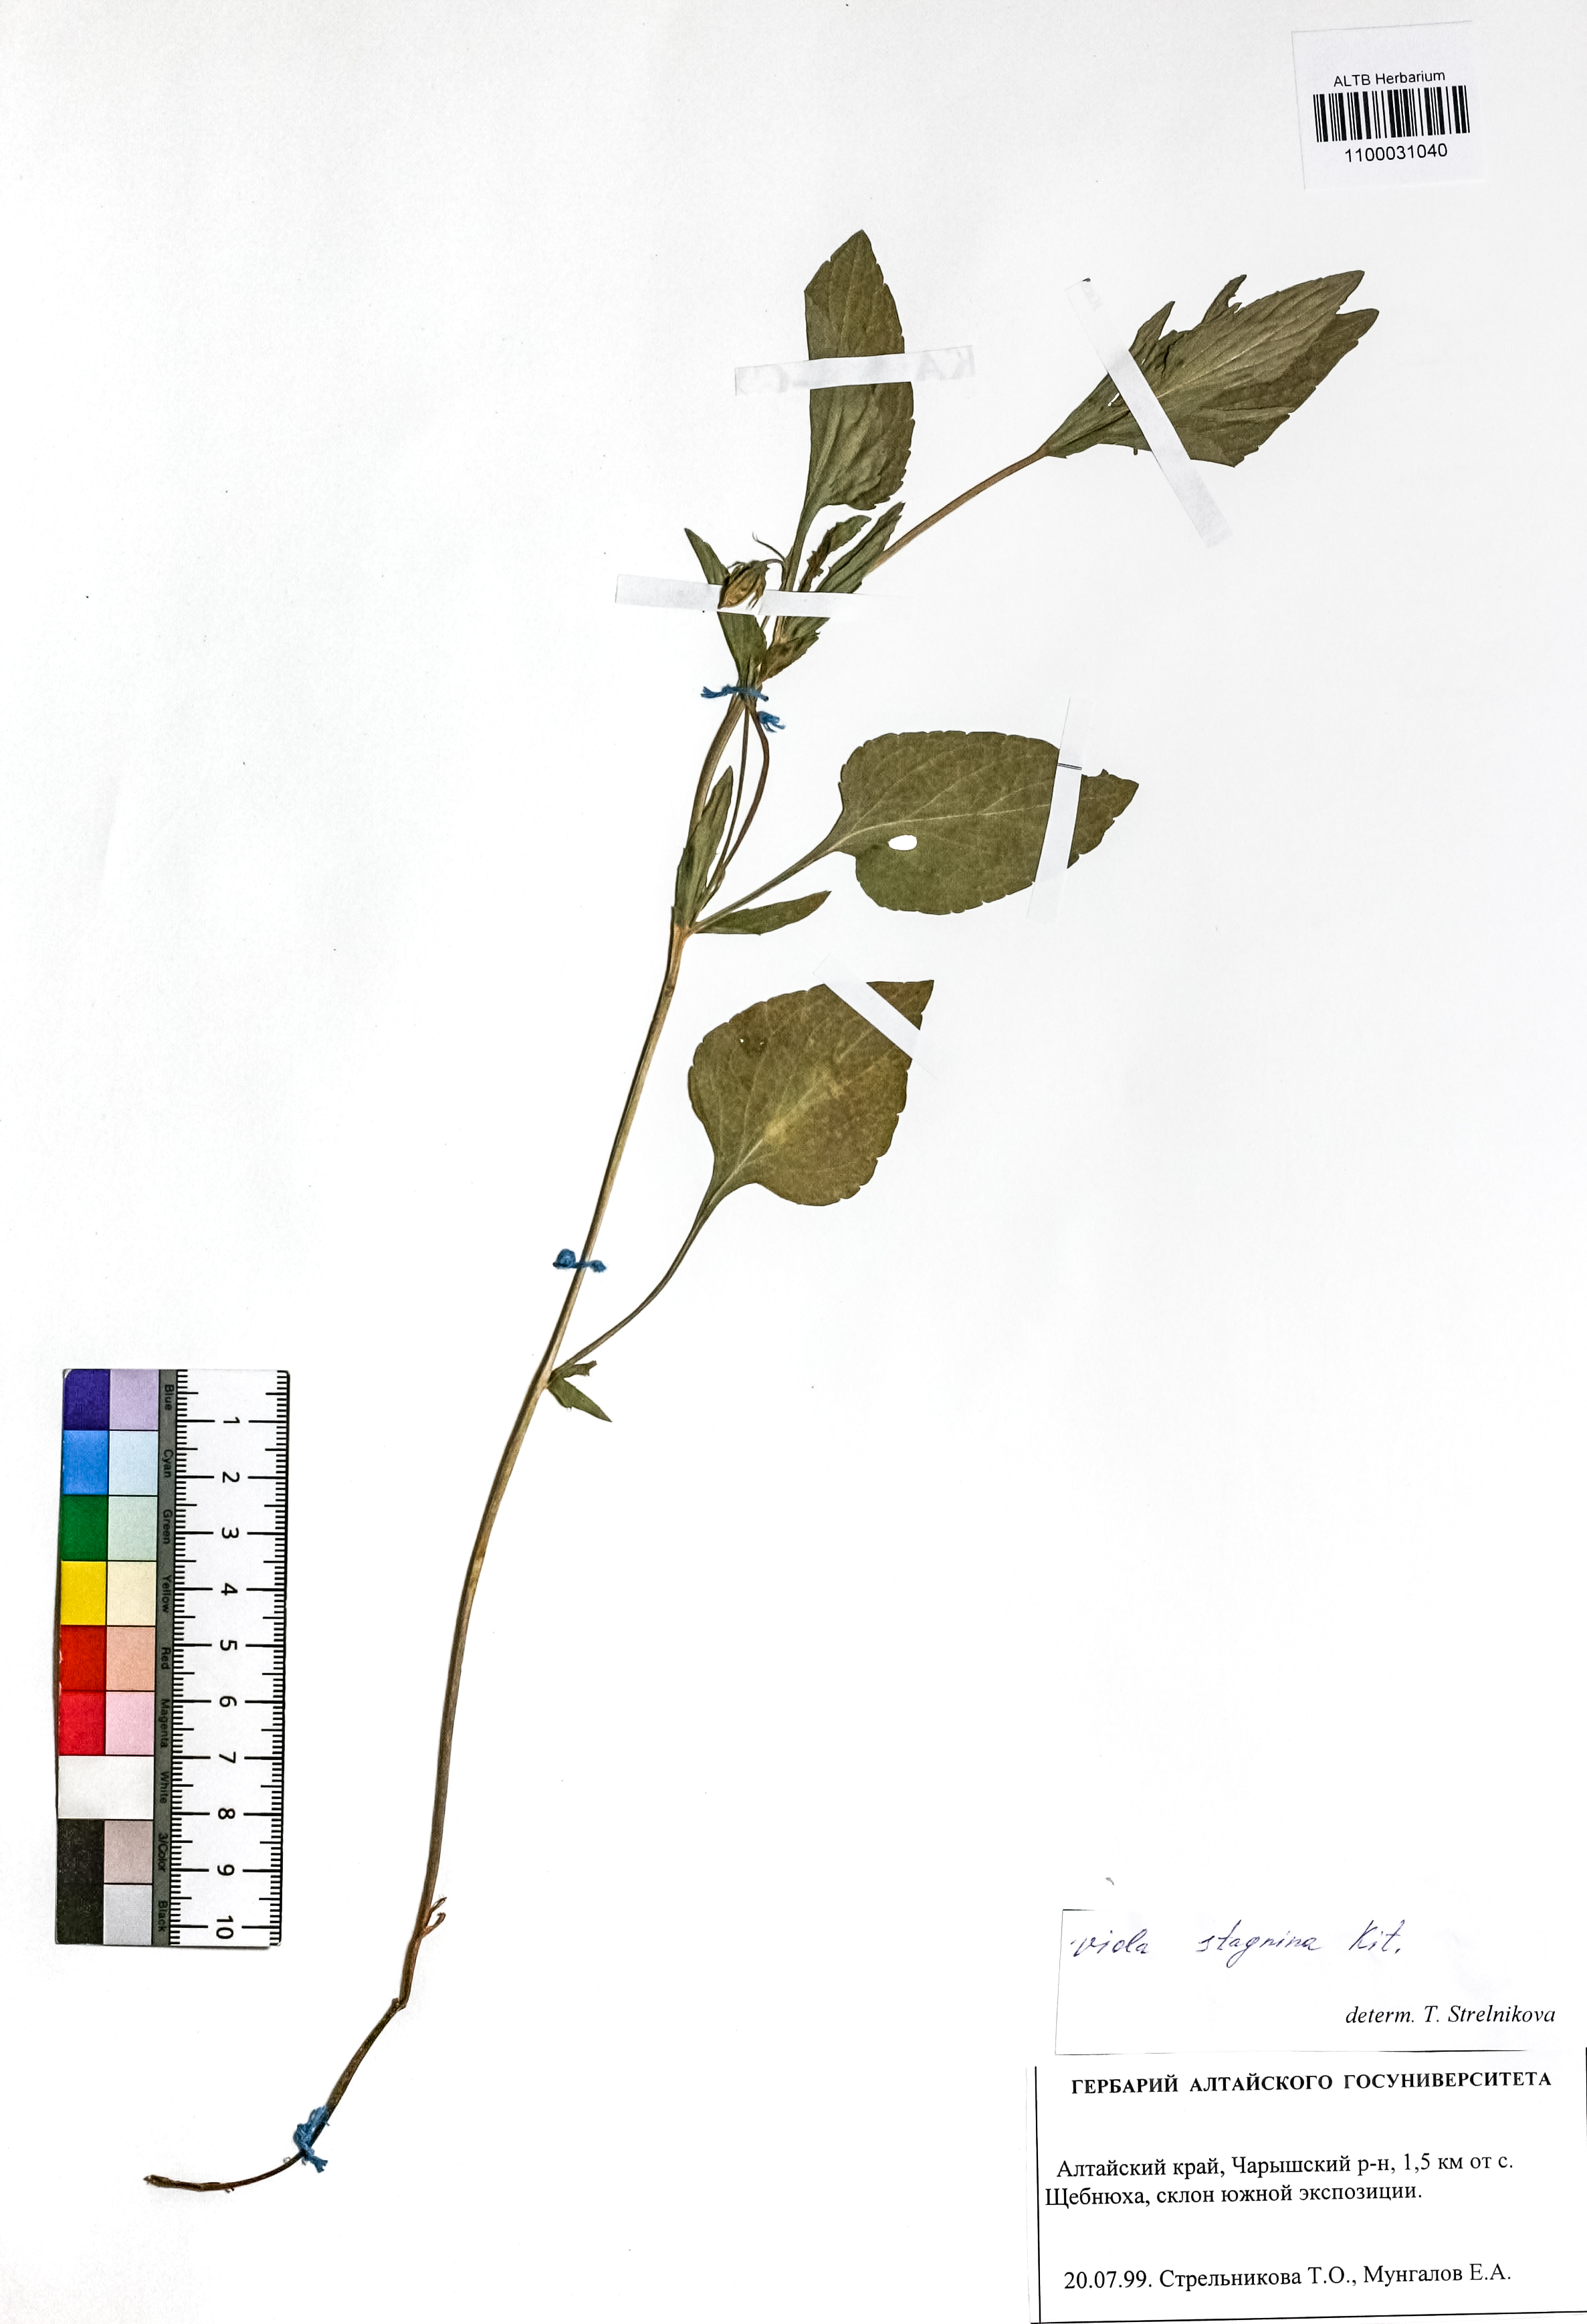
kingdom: Plantae
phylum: Tracheophyta
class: Magnoliopsida
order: Malpighiales
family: Violaceae
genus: Viola
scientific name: Viola stagnina
